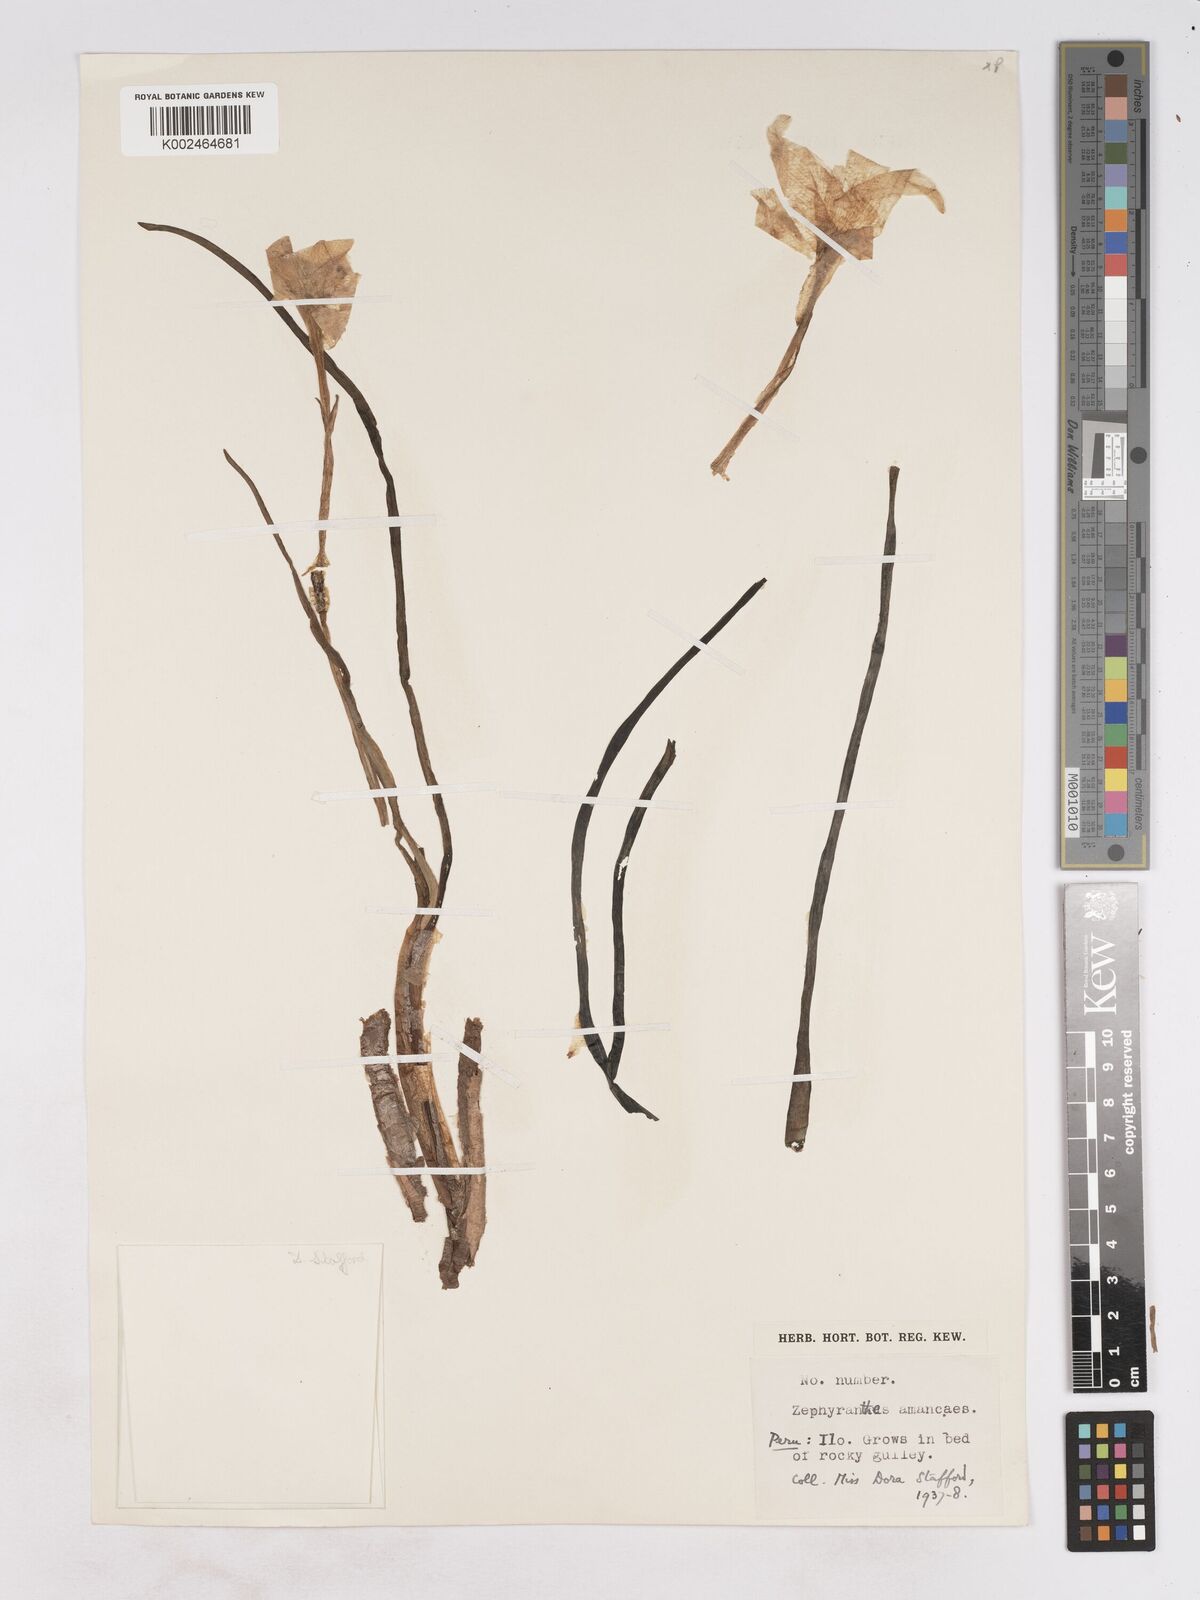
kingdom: Plantae
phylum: Tracheophyta
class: Liliopsida
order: Asparagales
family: Amaryllidaceae
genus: Pyrolirion
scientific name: Pyrolirion albicans
